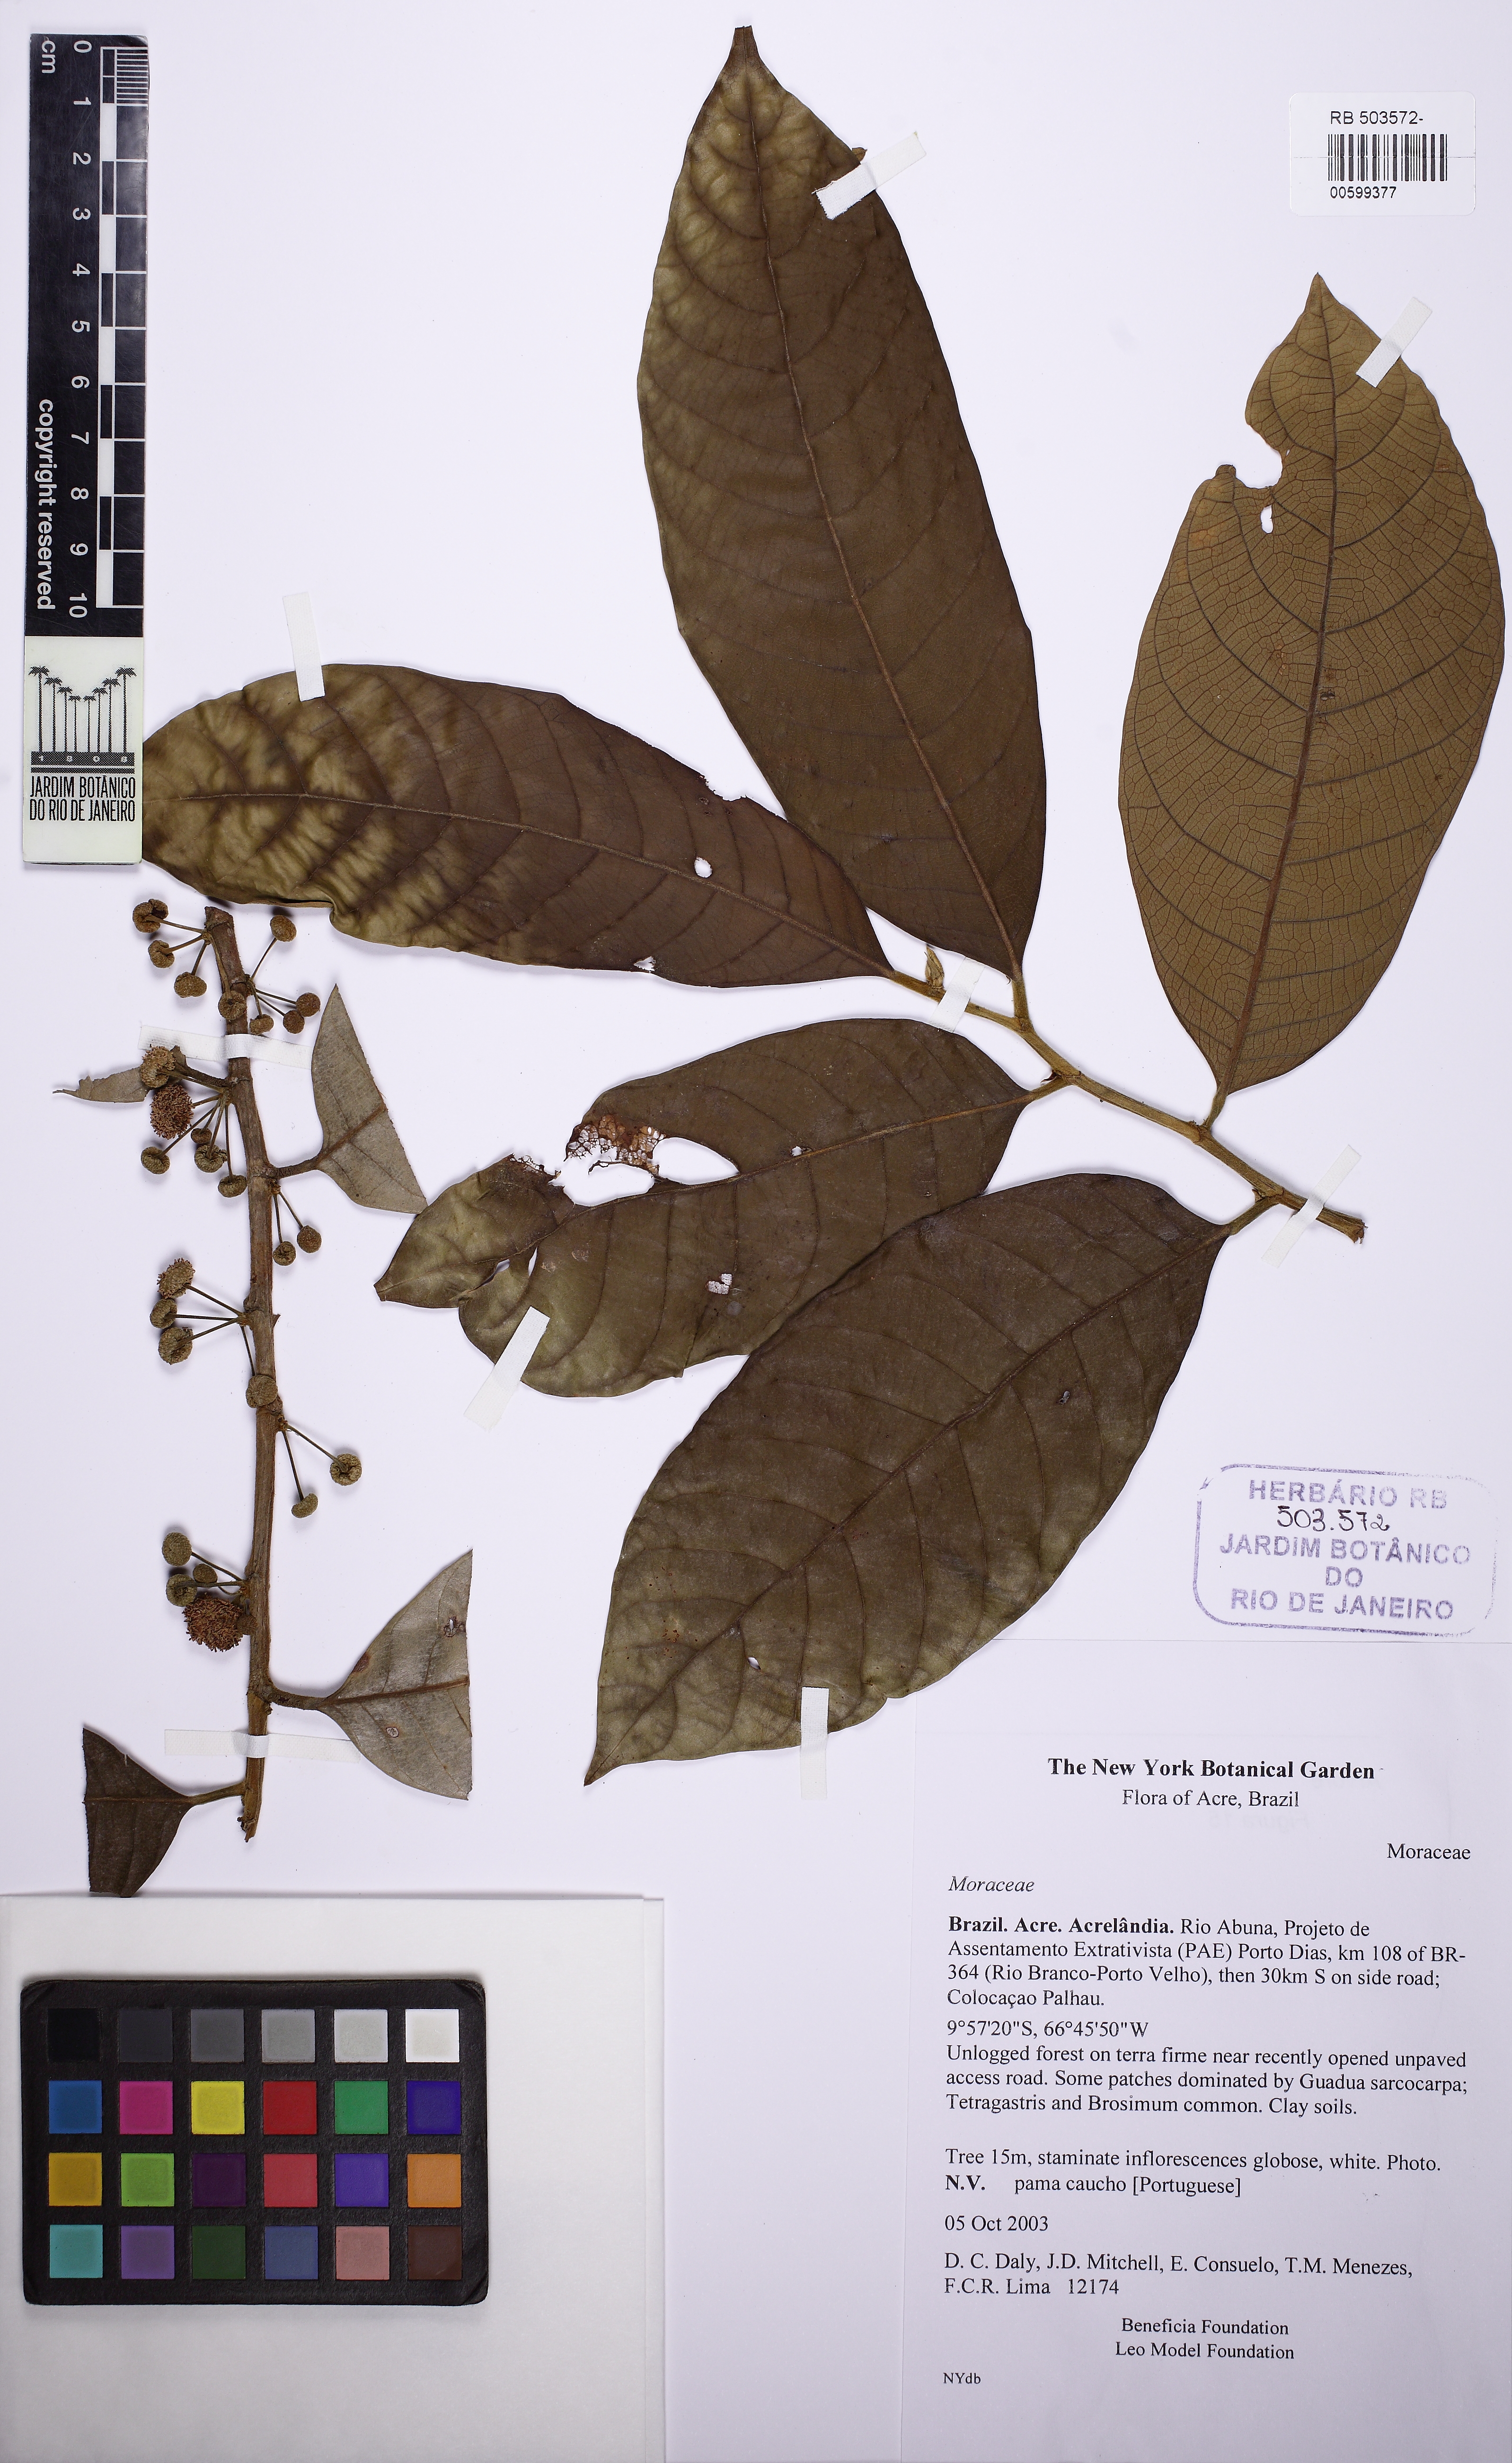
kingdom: Plantae
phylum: Tracheophyta
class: Magnoliopsida
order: Rosales
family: Moraceae
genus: Helicostylis
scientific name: Helicostylis tomentosa
